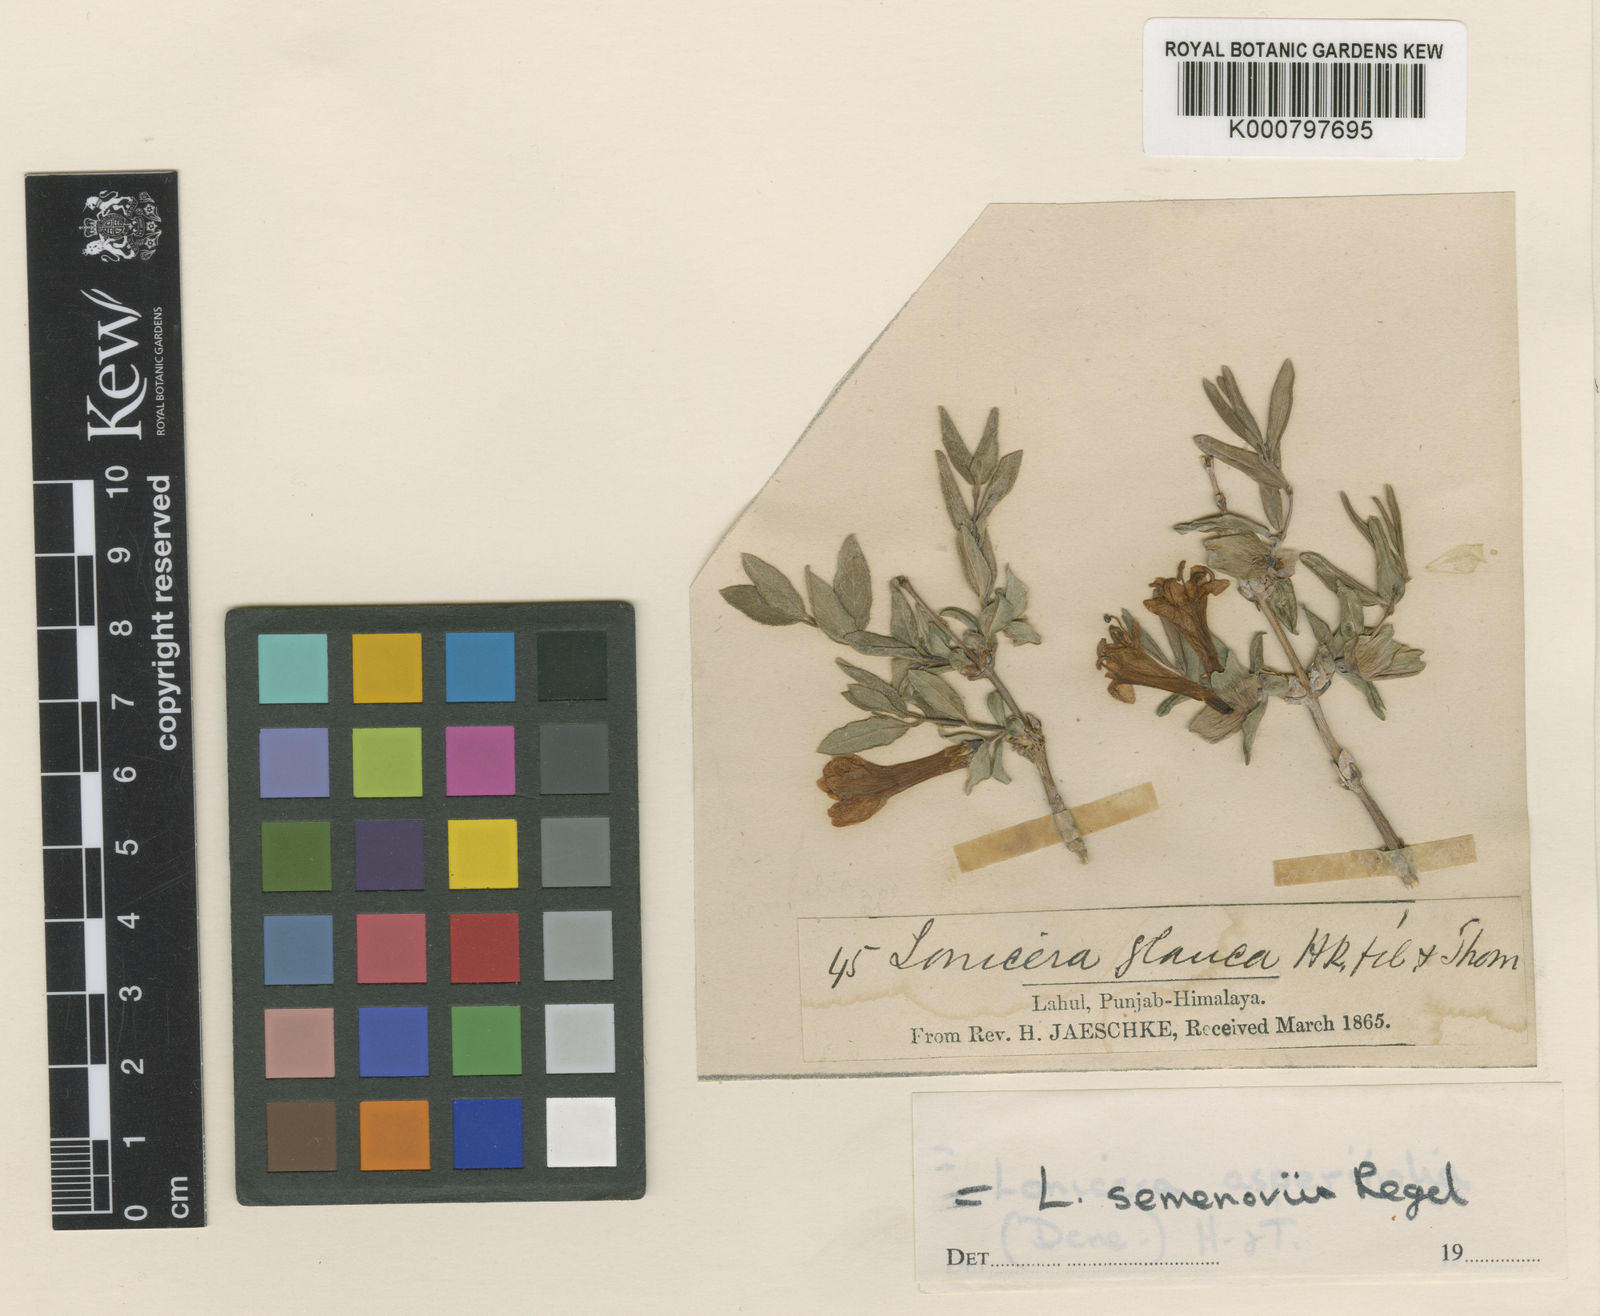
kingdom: Plantae
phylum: Tracheophyta
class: Magnoliopsida
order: Dipsacales
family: Caprifoliaceae
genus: Lonicera
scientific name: Lonicera semenovii
